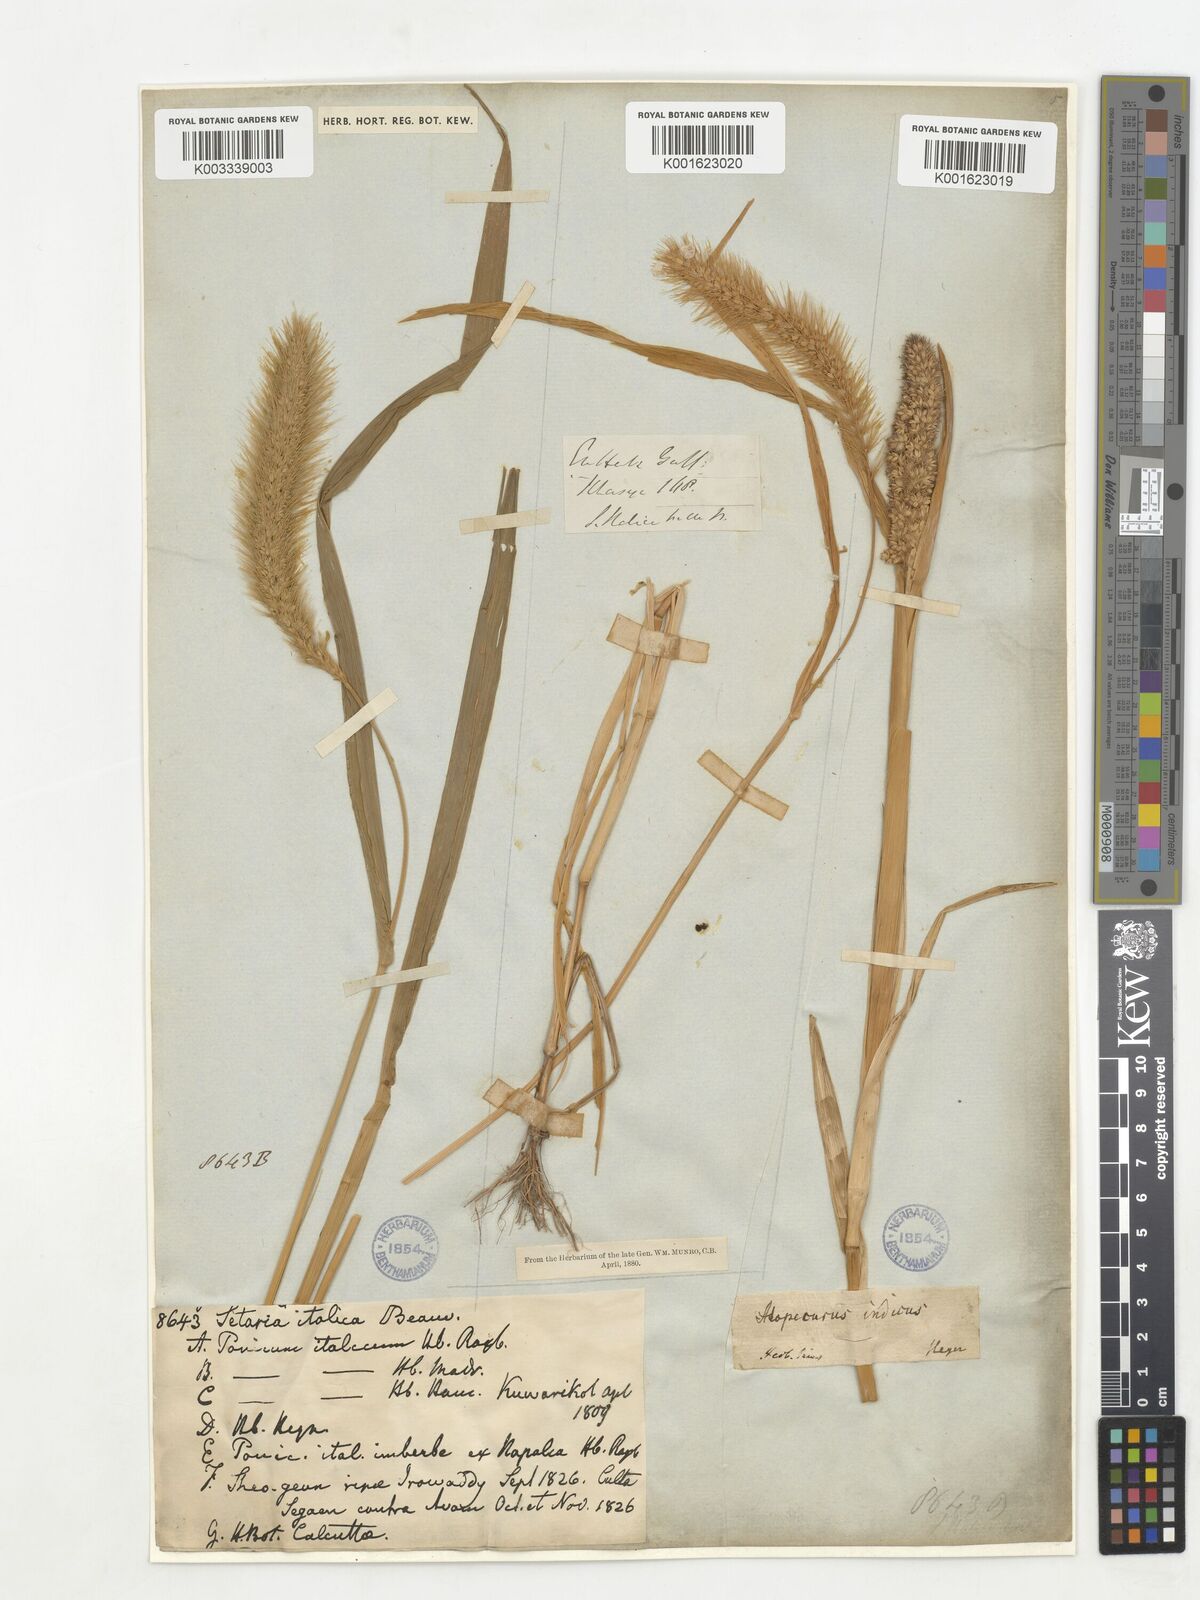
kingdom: Plantae
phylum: Tracheophyta
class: Liliopsida
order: Poales
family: Poaceae
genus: Setaria
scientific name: Setaria italica
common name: Foxtail bristle-grass
